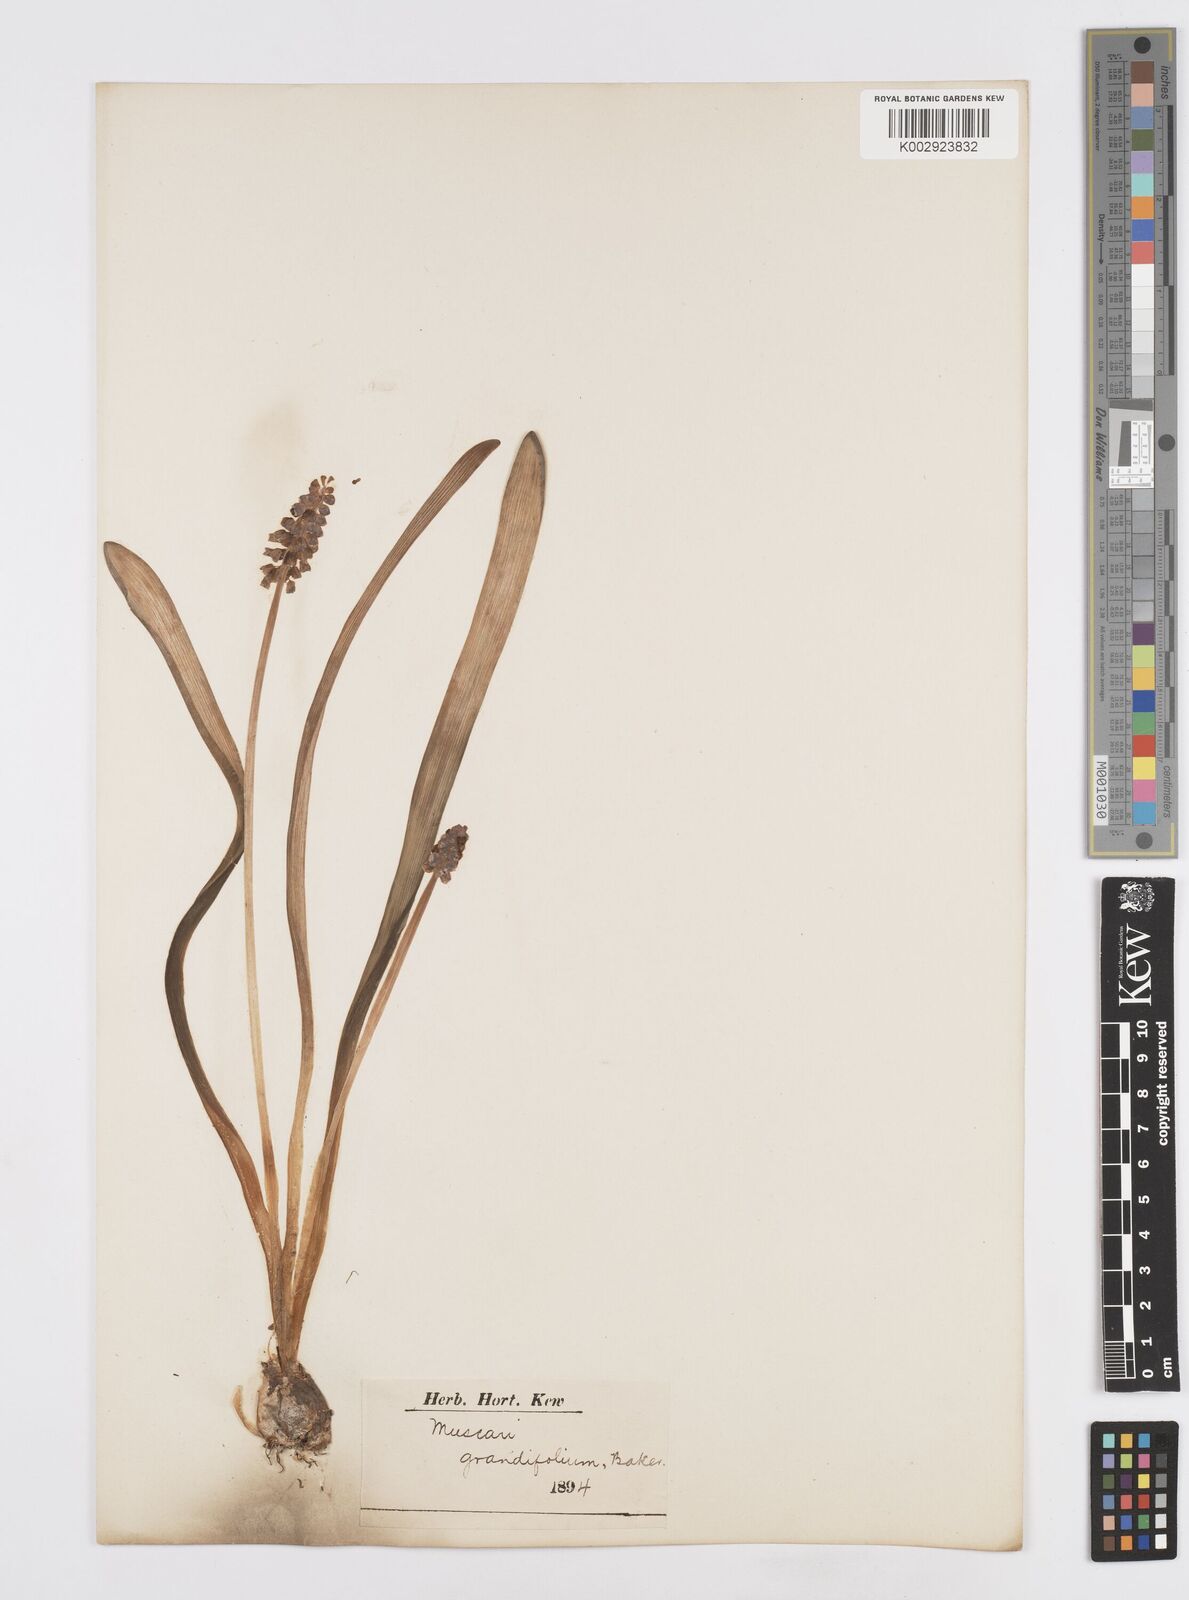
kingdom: Plantae
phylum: Tracheophyta
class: Liliopsida
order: Asparagales
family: Asparagaceae
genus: Muscari
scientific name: Muscari neglectum
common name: Grape-hyacinth
